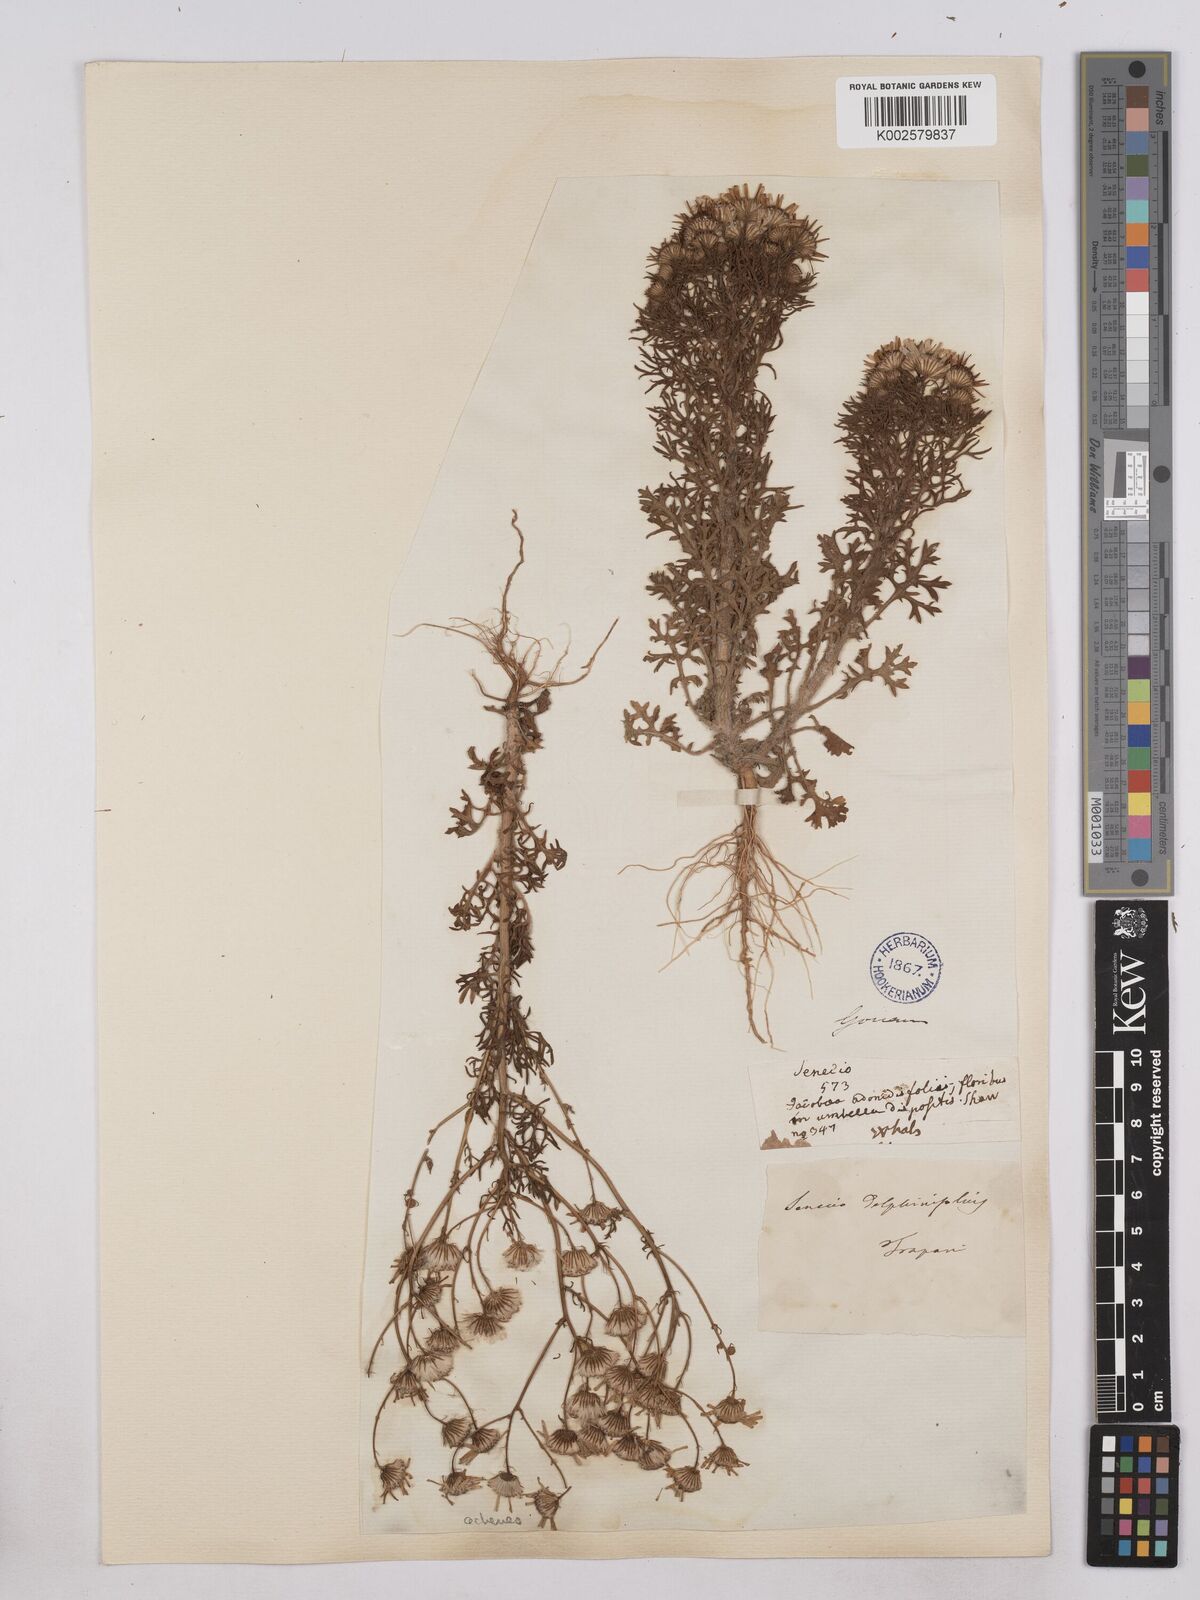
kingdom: Plantae
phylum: Tracheophyta
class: Magnoliopsida
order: Asterales
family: Asteraceae
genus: Jacobaea
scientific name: Jacobaea erucifolia
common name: Hoary ragwort
